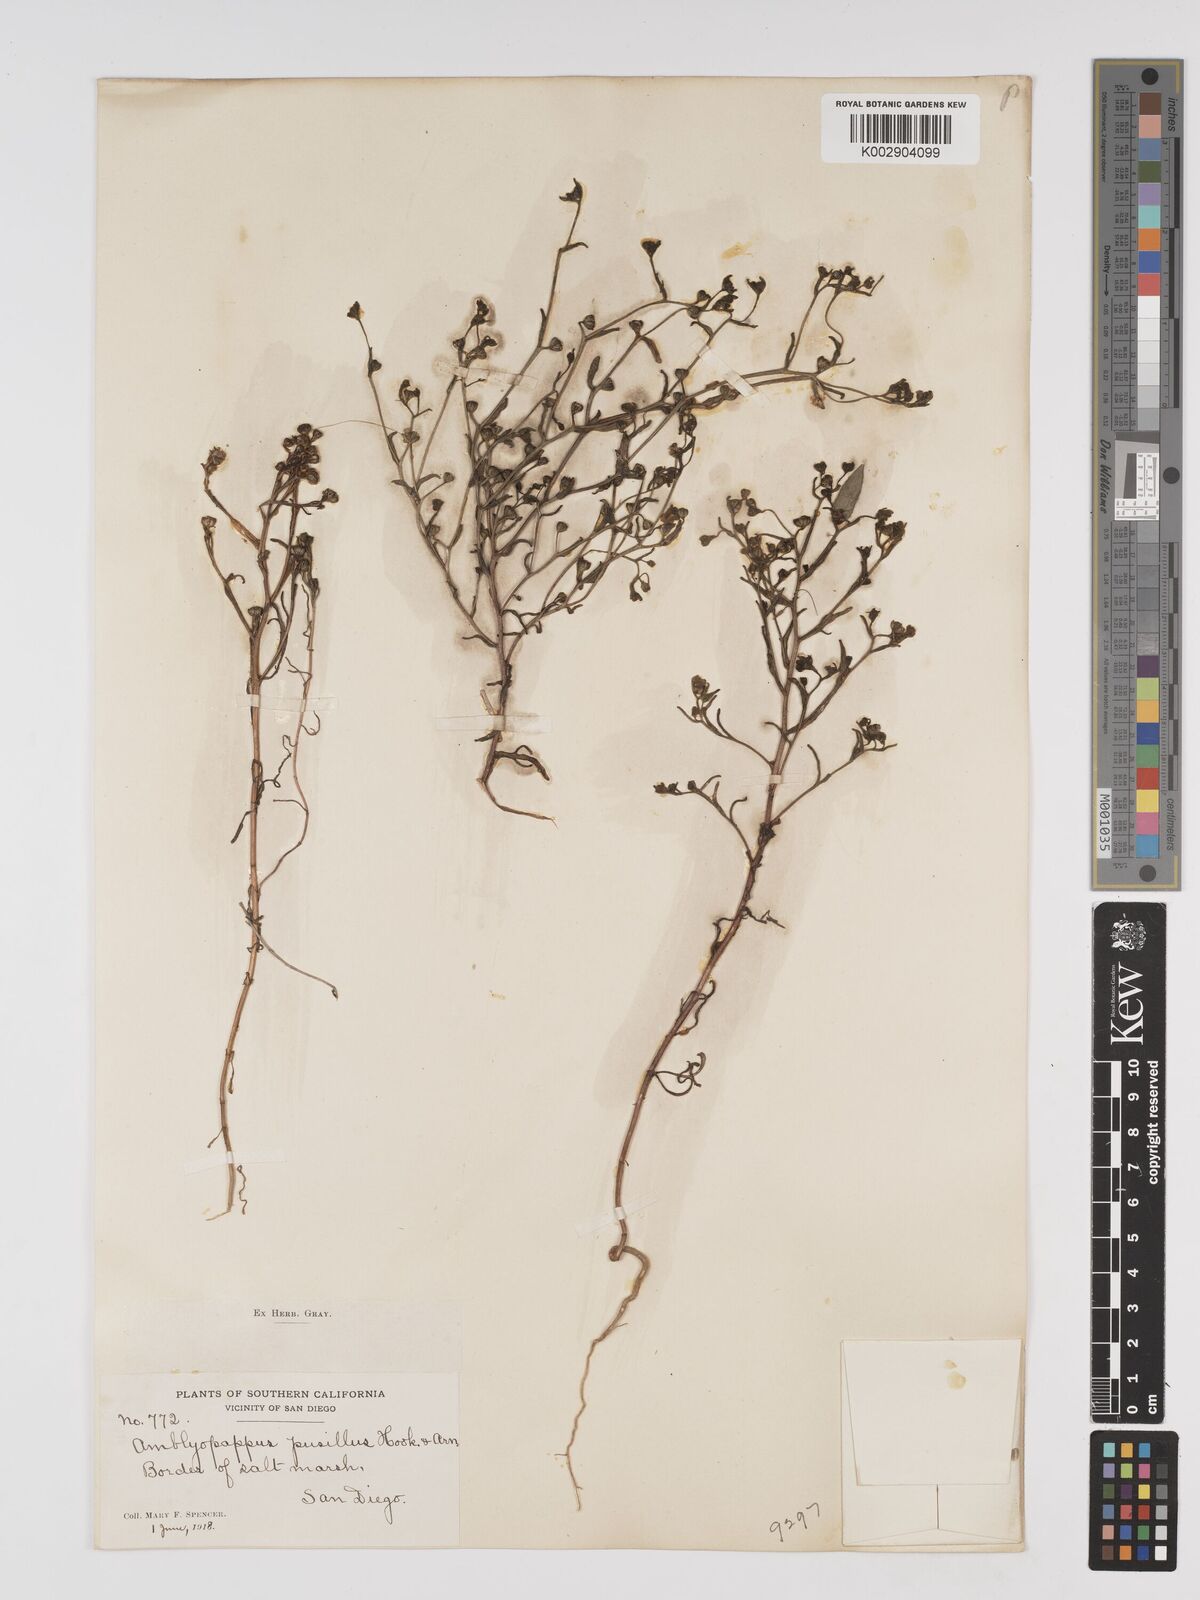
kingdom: Plantae
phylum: Tracheophyta
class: Magnoliopsida
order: Asterales
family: Asteraceae
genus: Amblyopappus
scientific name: Amblyopappus pusillus
